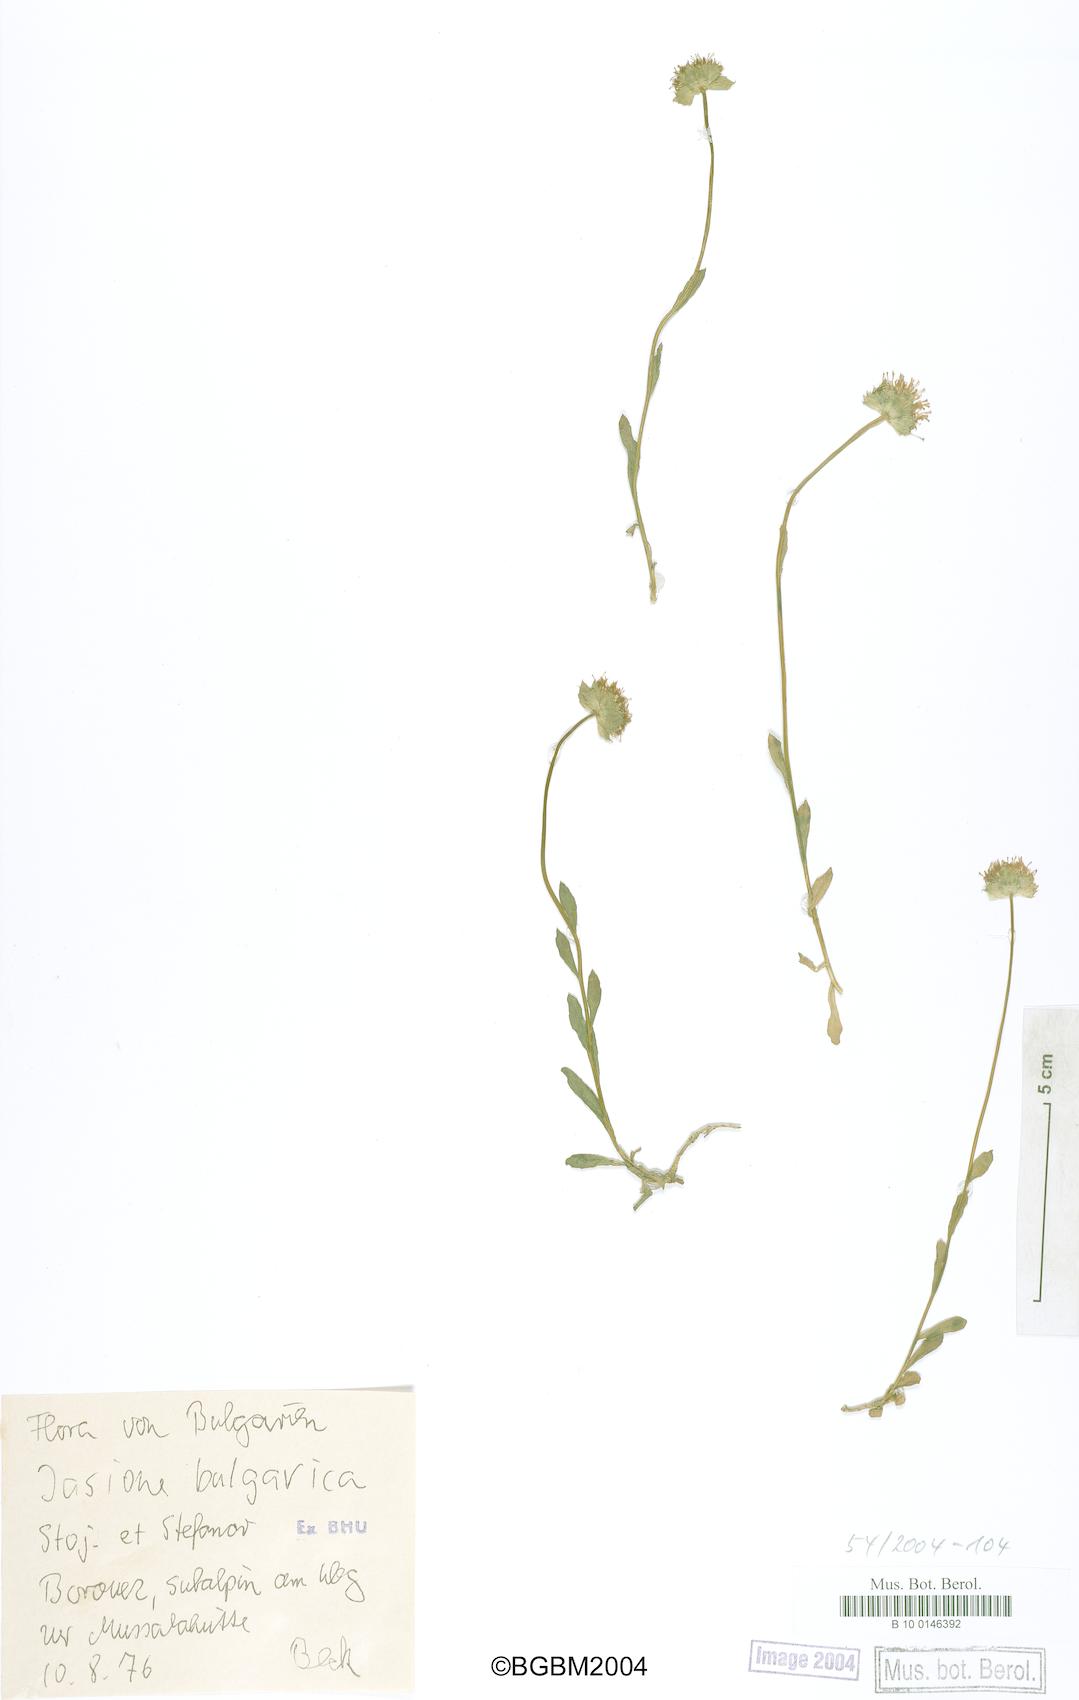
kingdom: Plantae
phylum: Tracheophyta
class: Magnoliopsida
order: Asterales
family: Campanulaceae
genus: Jasione
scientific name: Jasione bulgarica
